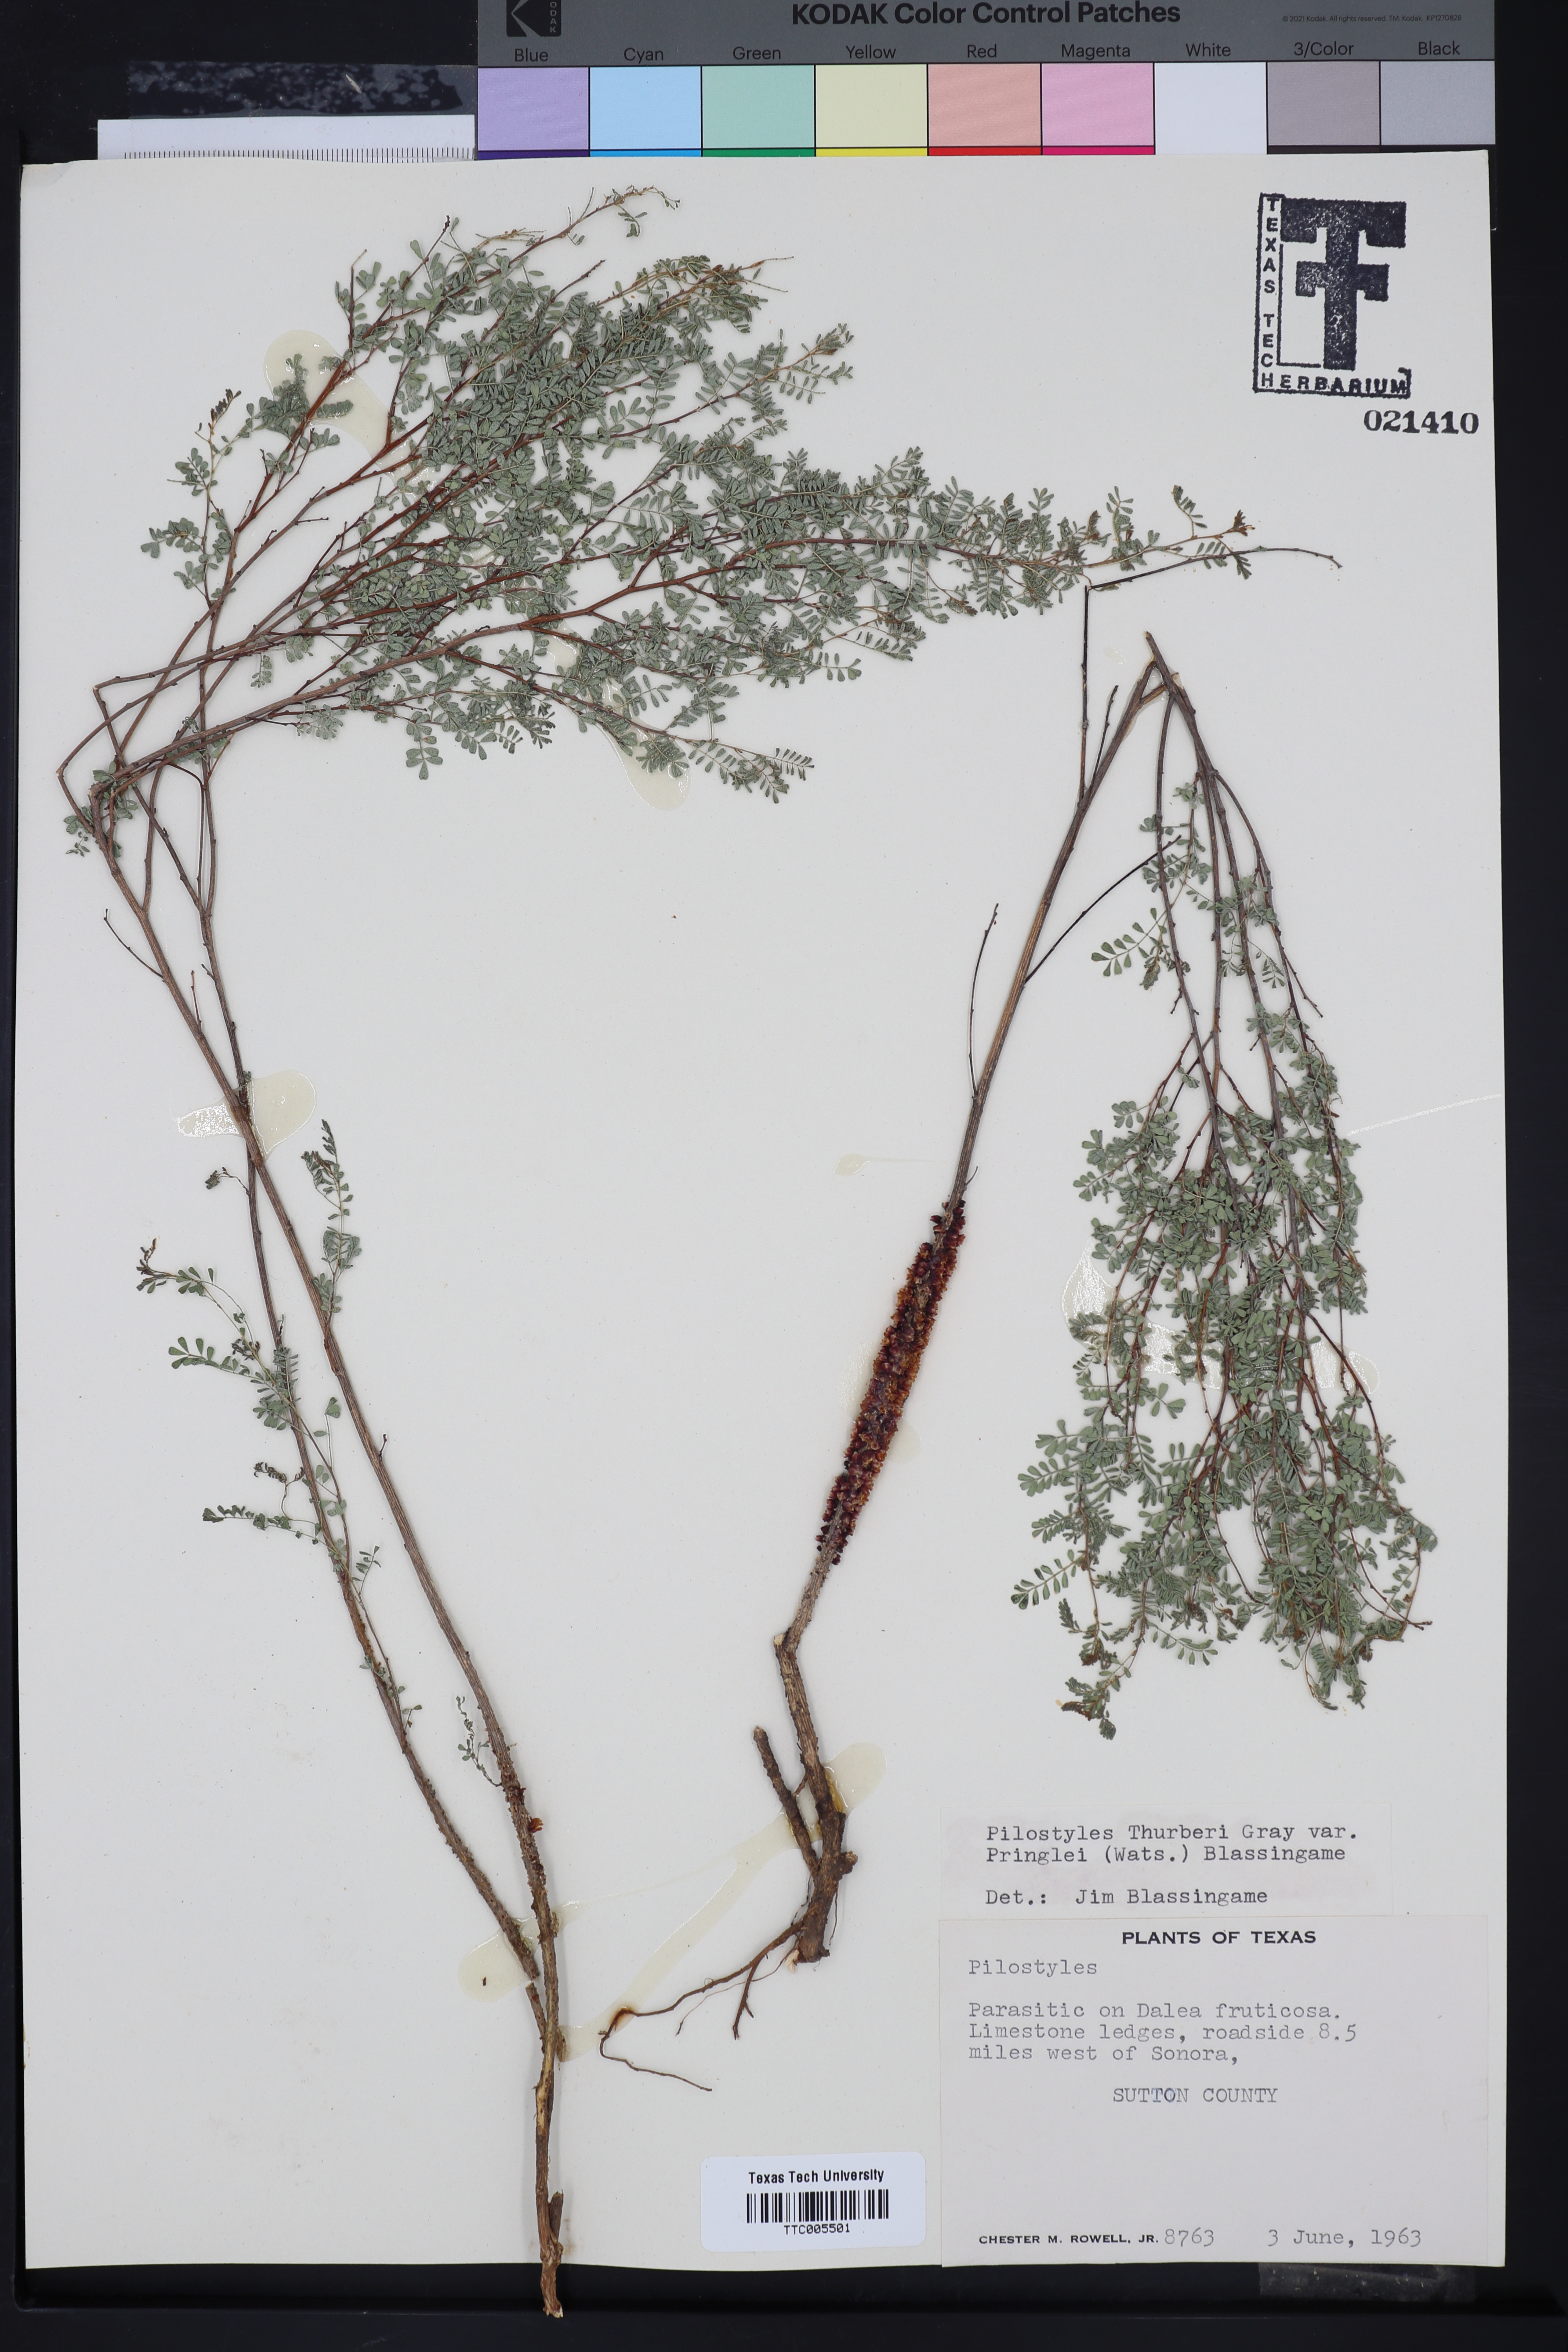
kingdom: Plantae
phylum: Tracheophyta
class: Magnoliopsida
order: Cucurbitales
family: Apodanthaceae
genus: Pilostyles
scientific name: Pilostyles
